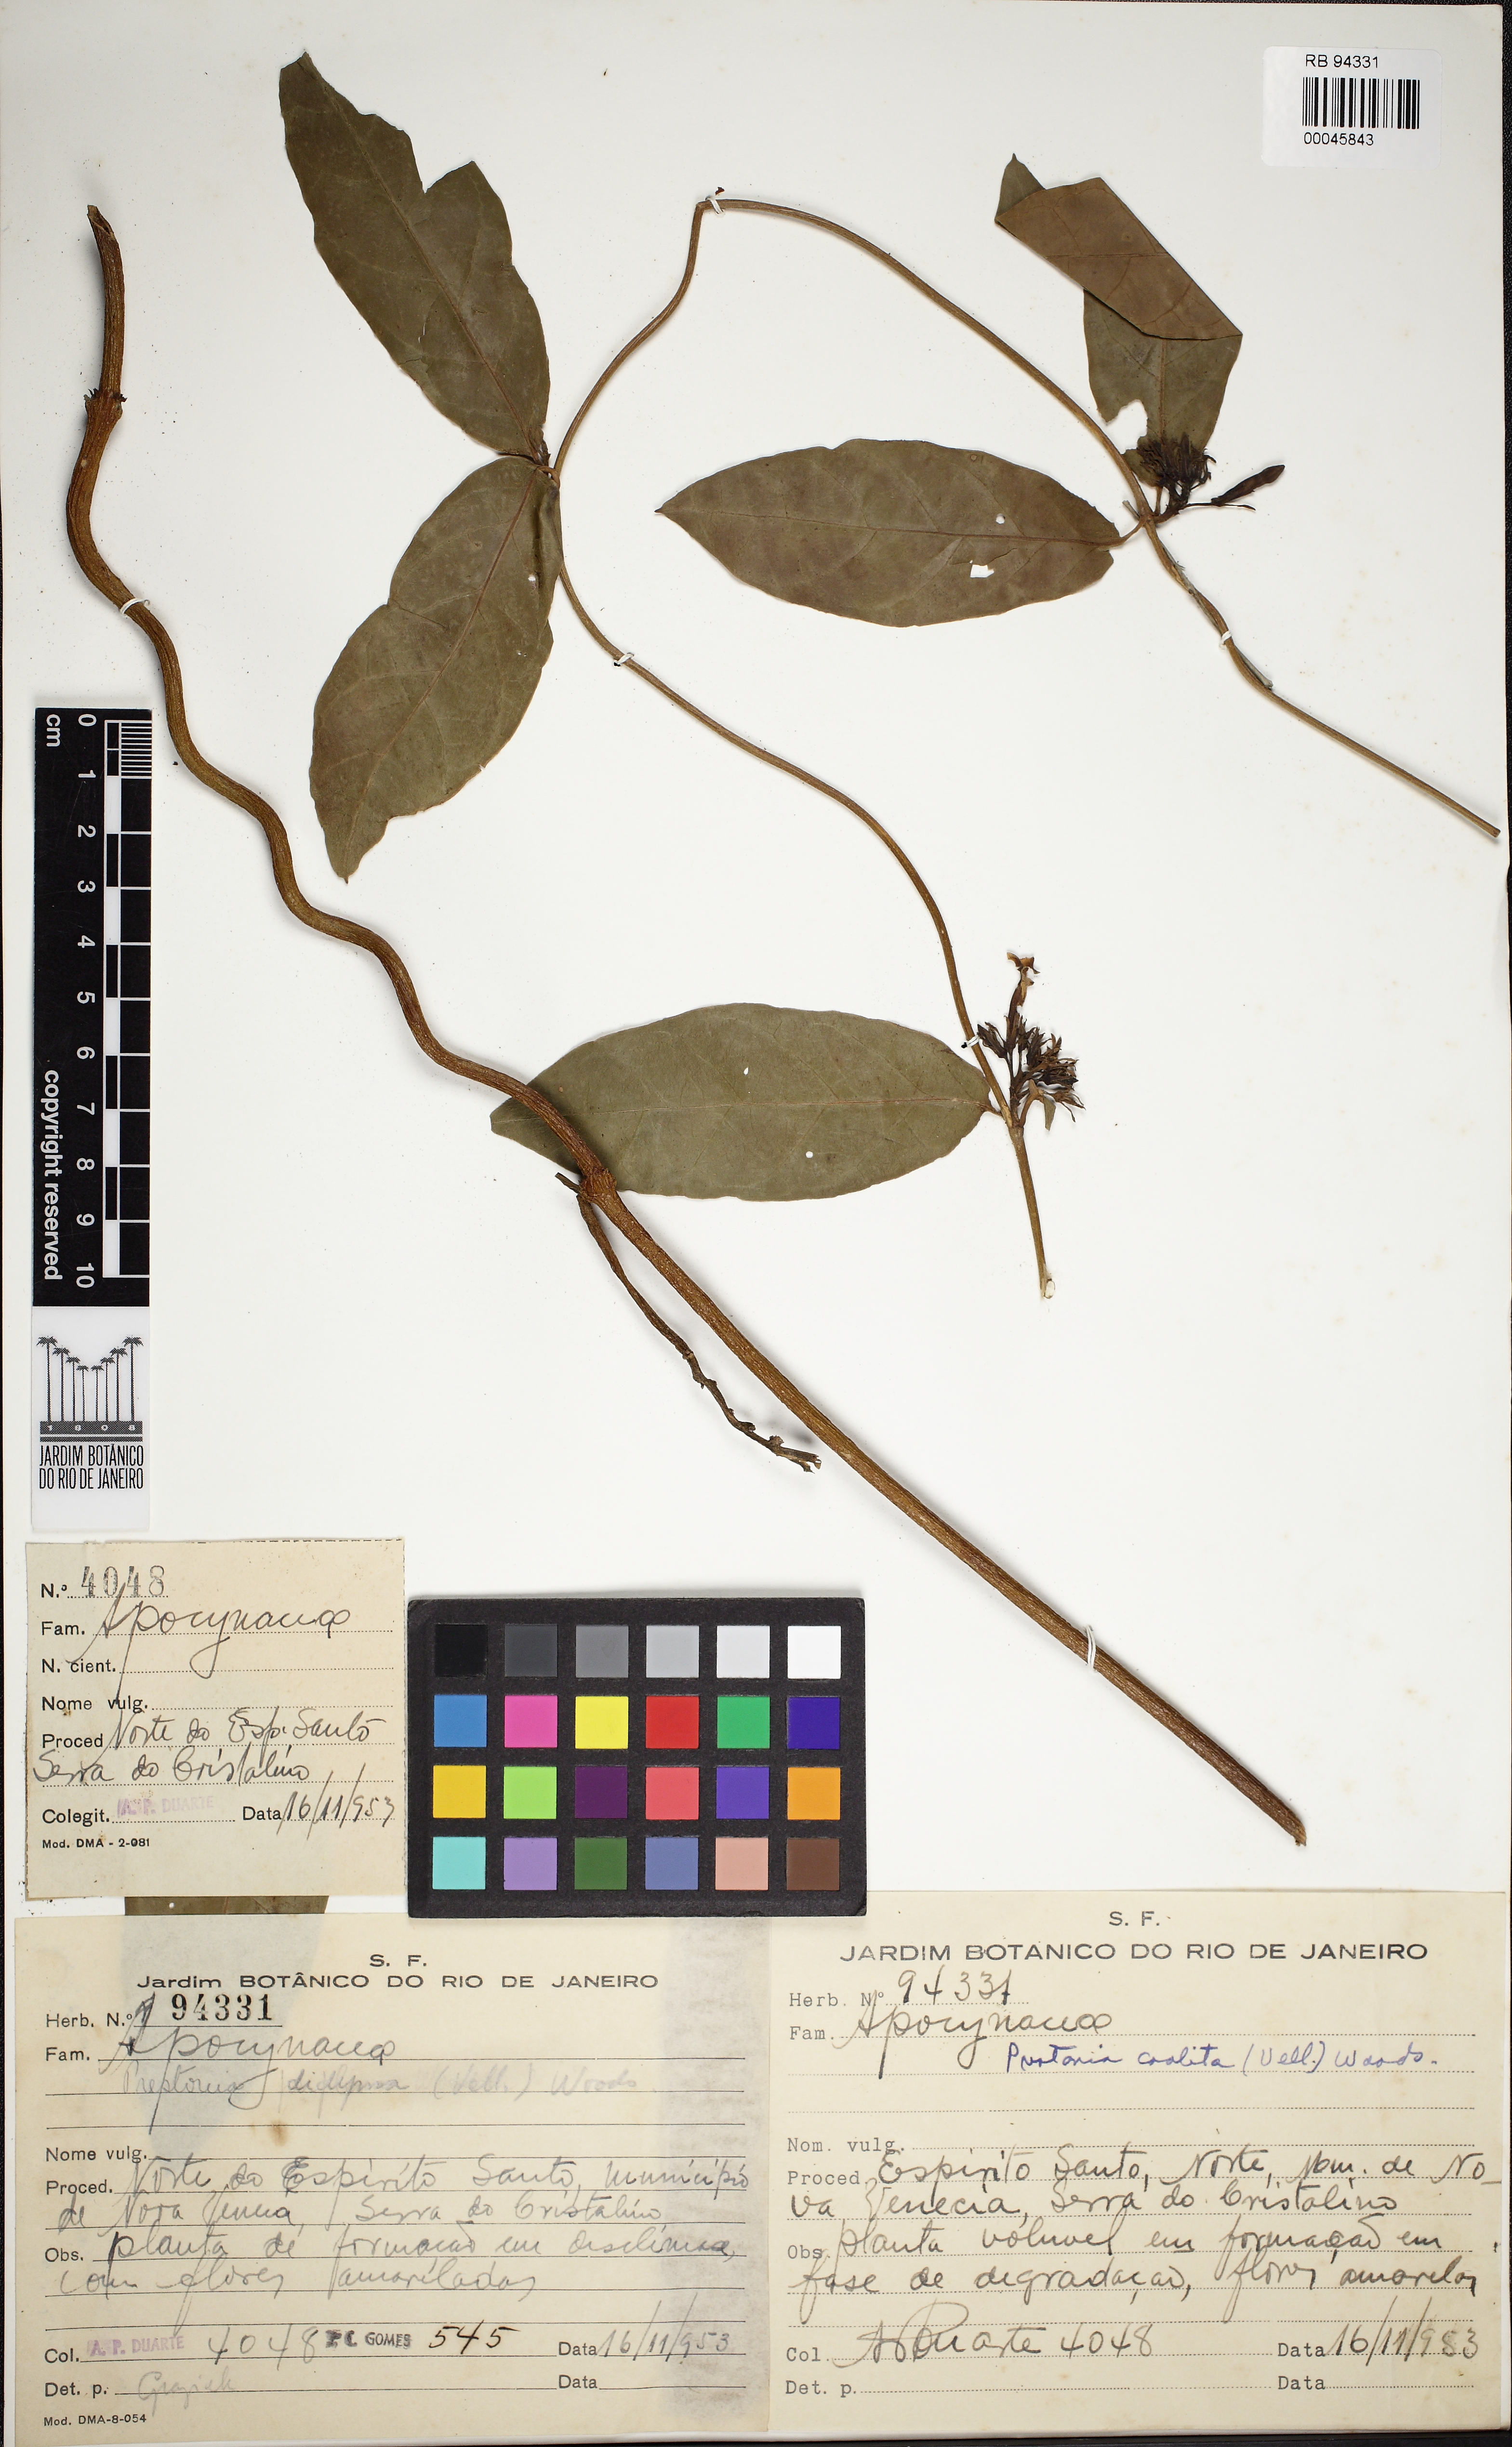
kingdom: Plantae
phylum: Tracheophyta
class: Magnoliopsida
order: Gentianales
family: Apocynaceae
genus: Prestonia
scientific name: Prestonia coalita
